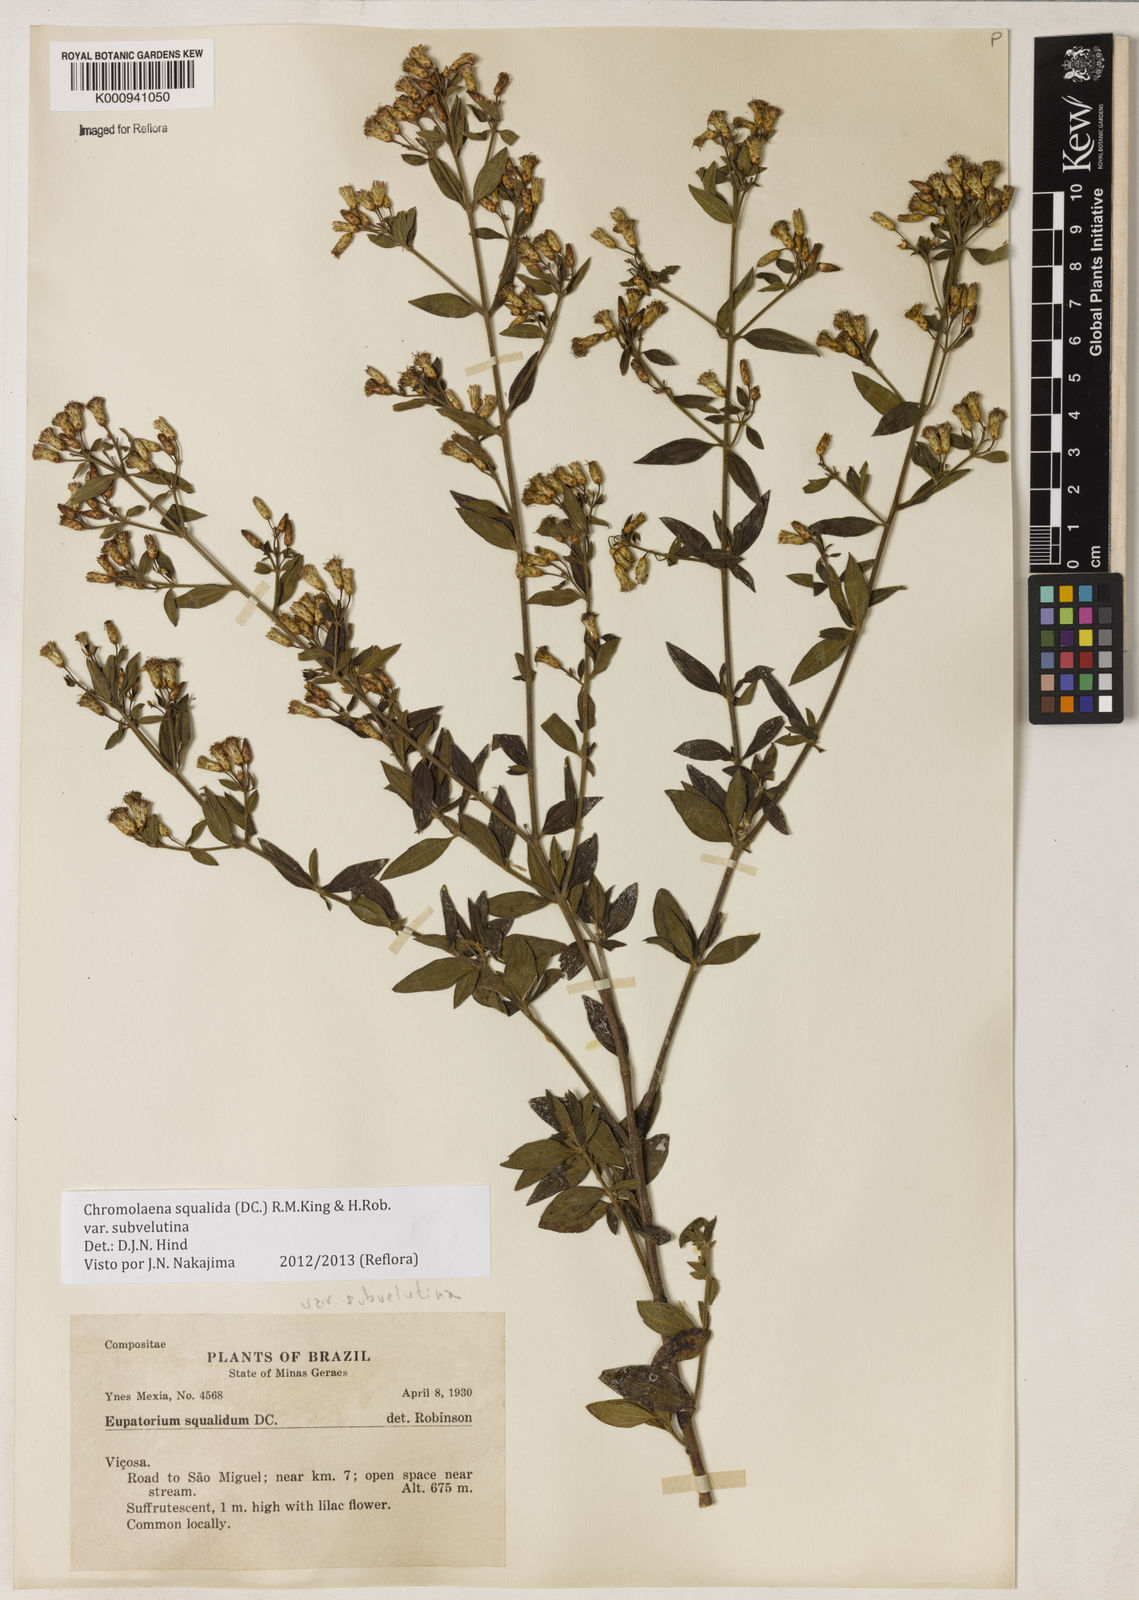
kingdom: Plantae
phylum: Tracheophyta
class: Magnoliopsida
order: Asterales
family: Asteraceae
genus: Chromolaena
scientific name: Chromolaena squalida
